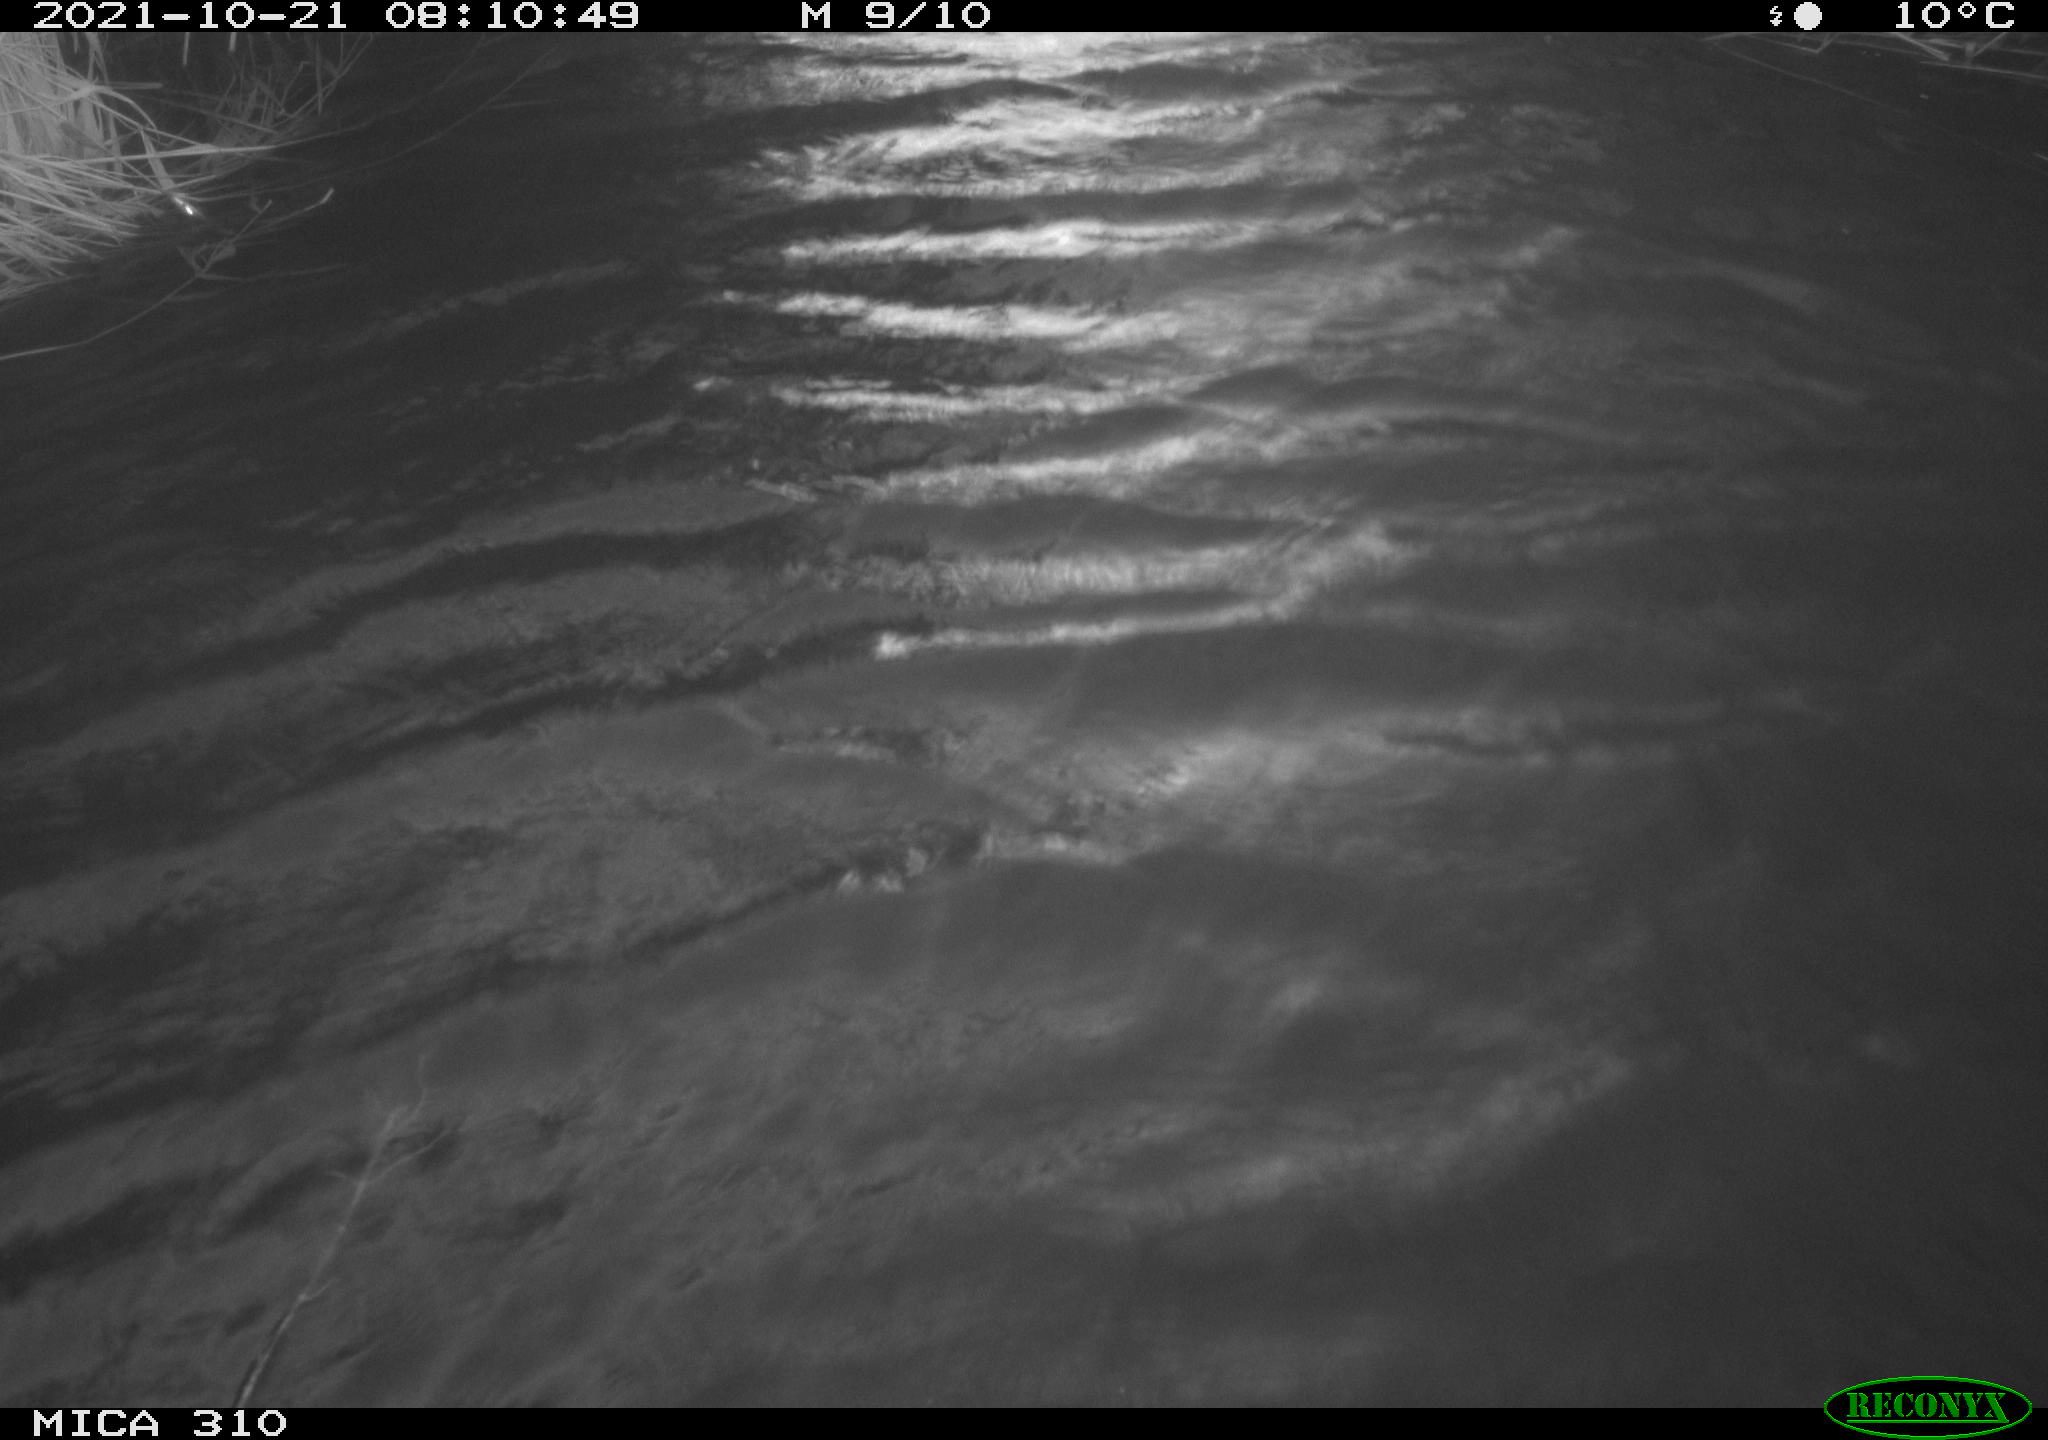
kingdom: Animalia
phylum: Chordata
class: Aves
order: Gruiformes
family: Rallidae
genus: Gallinula
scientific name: Gallinula chloropus
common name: Common moorhen
